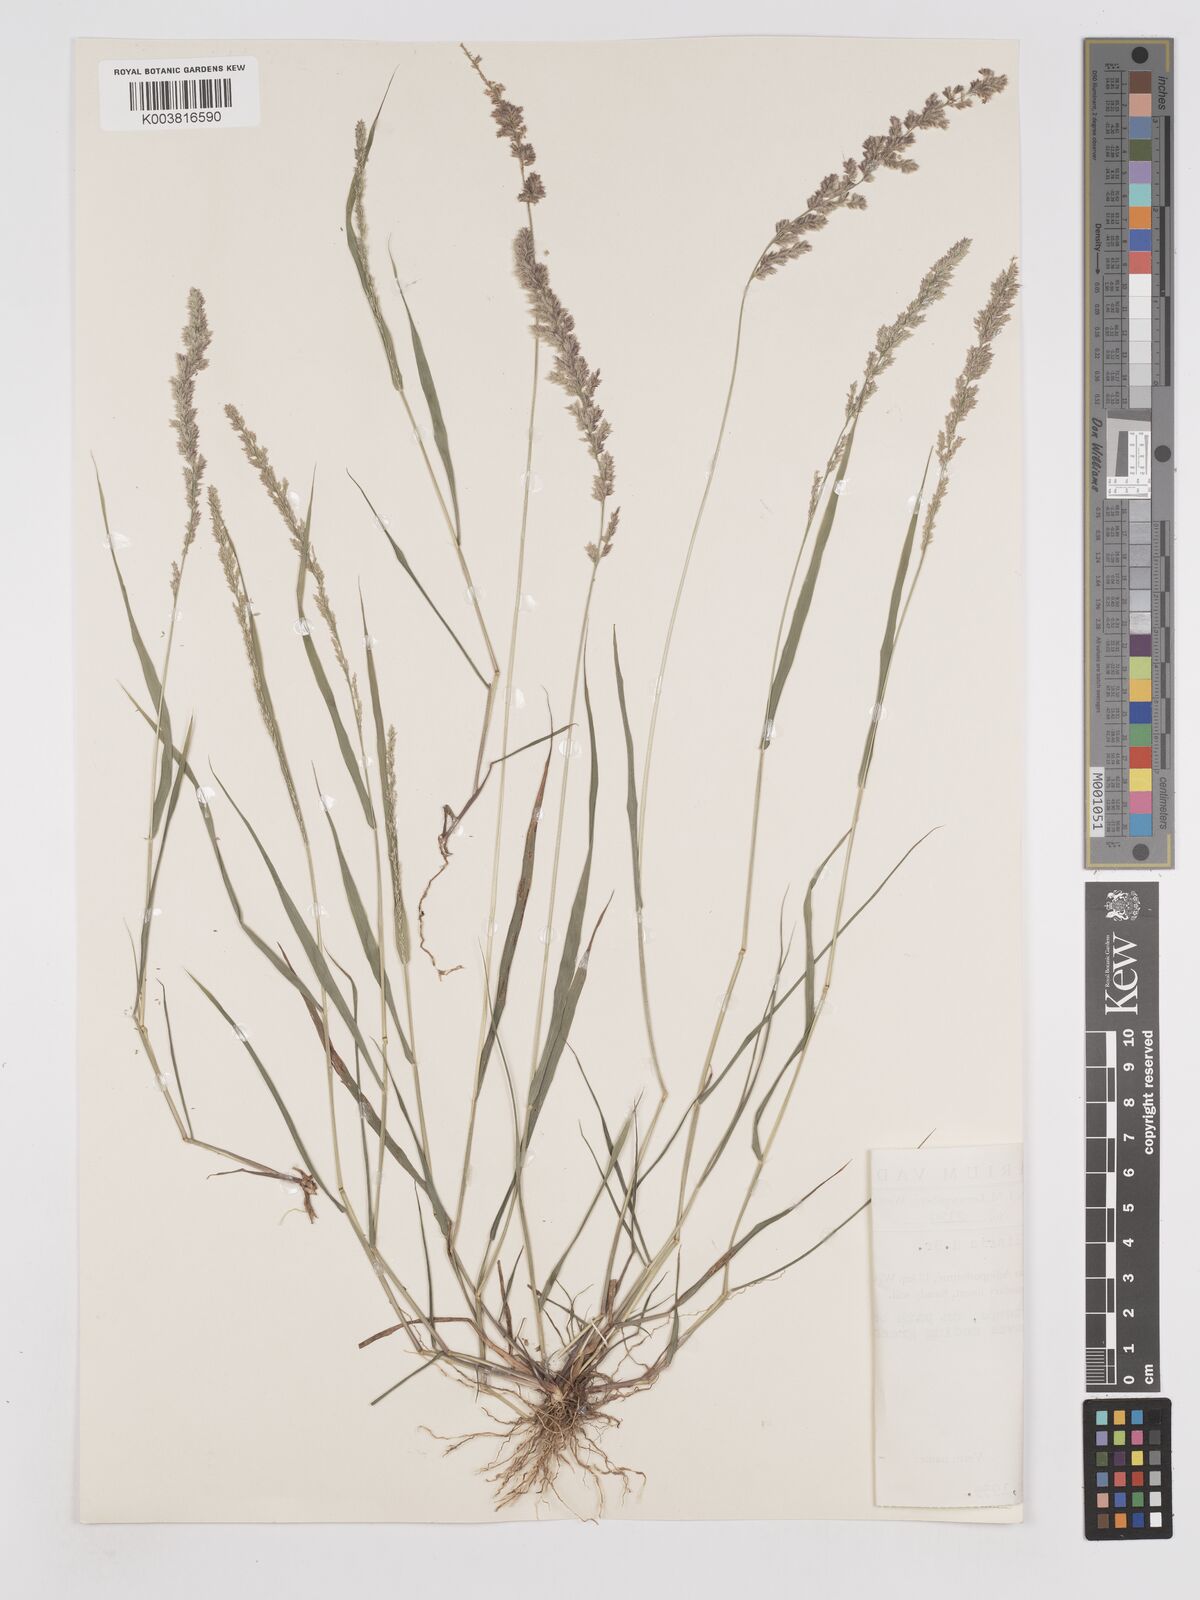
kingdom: Plantae
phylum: Tracheophyta
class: Liliopsida
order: Poales
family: Poaceae
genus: Eragrostis
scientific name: Eragrostis ciliaris
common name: Gophertail lovegrass
